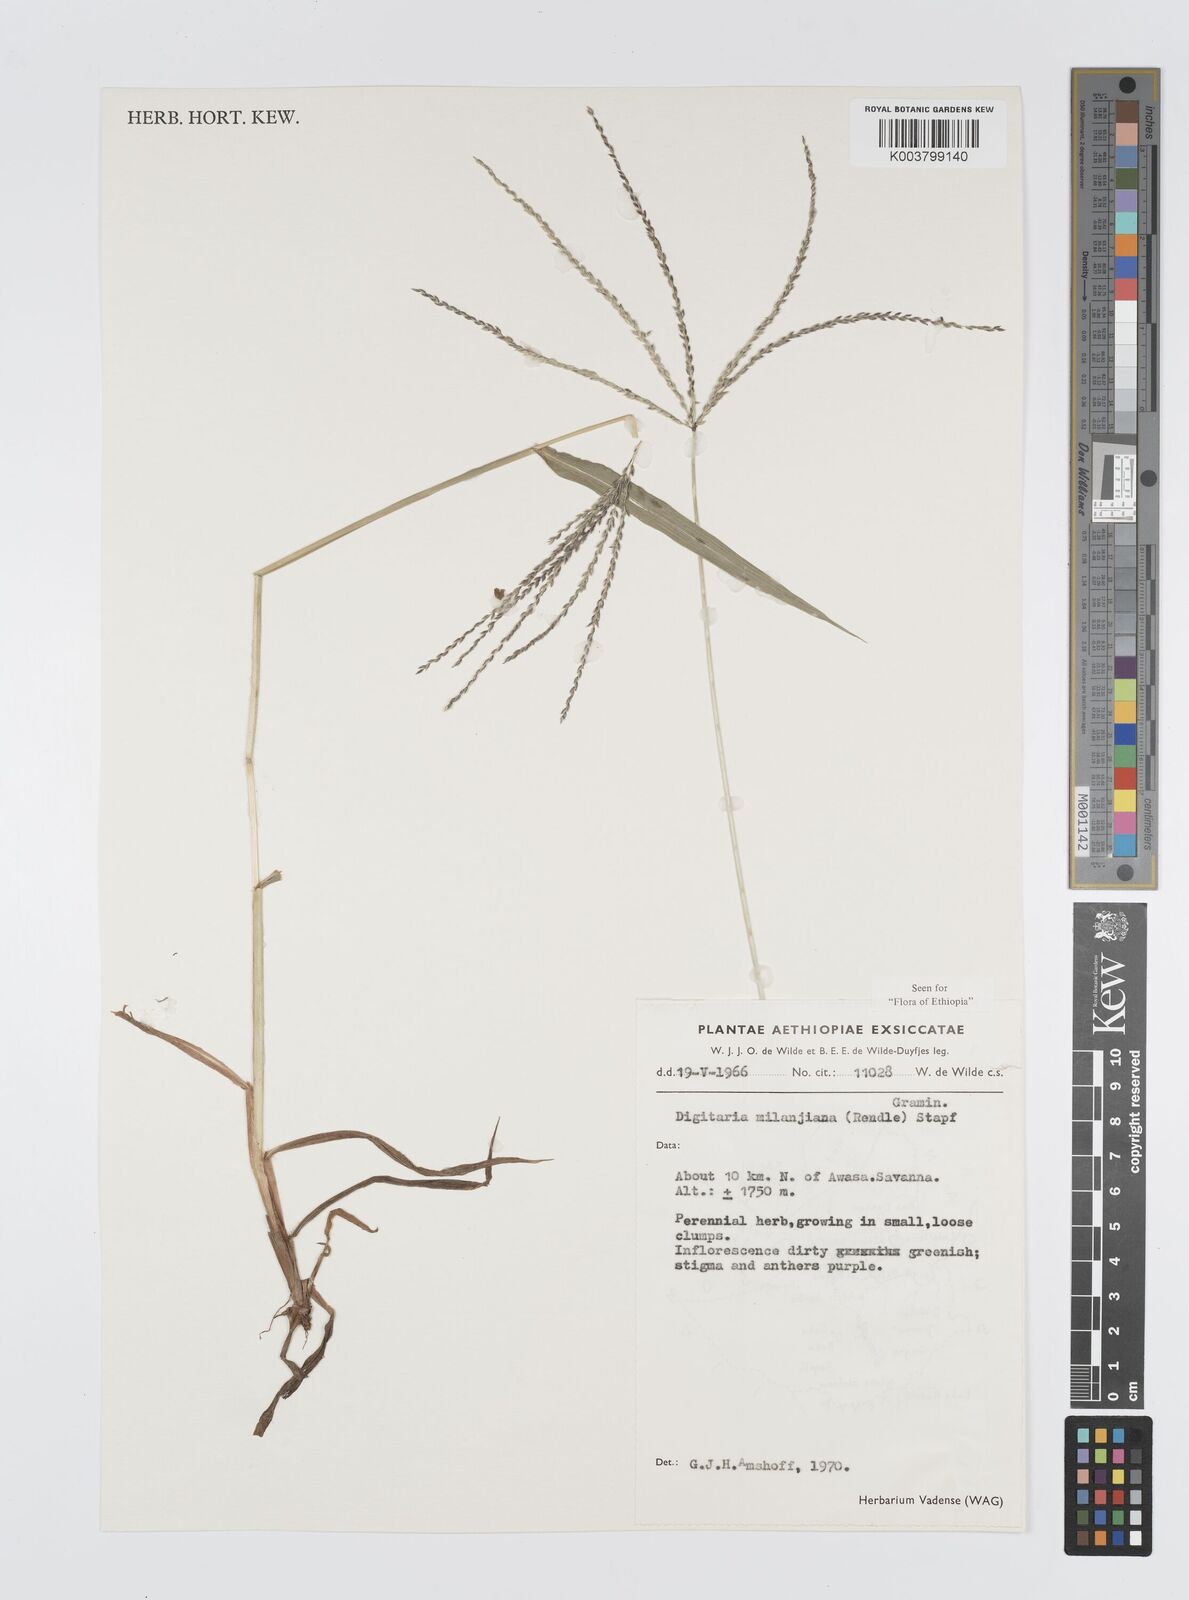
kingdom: Plantae
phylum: Tracheophyta
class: Liliopsida
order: Poales
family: Poaceae
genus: Digitaria
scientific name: Digitaria milanjiana
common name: Madagascar crabgrass
